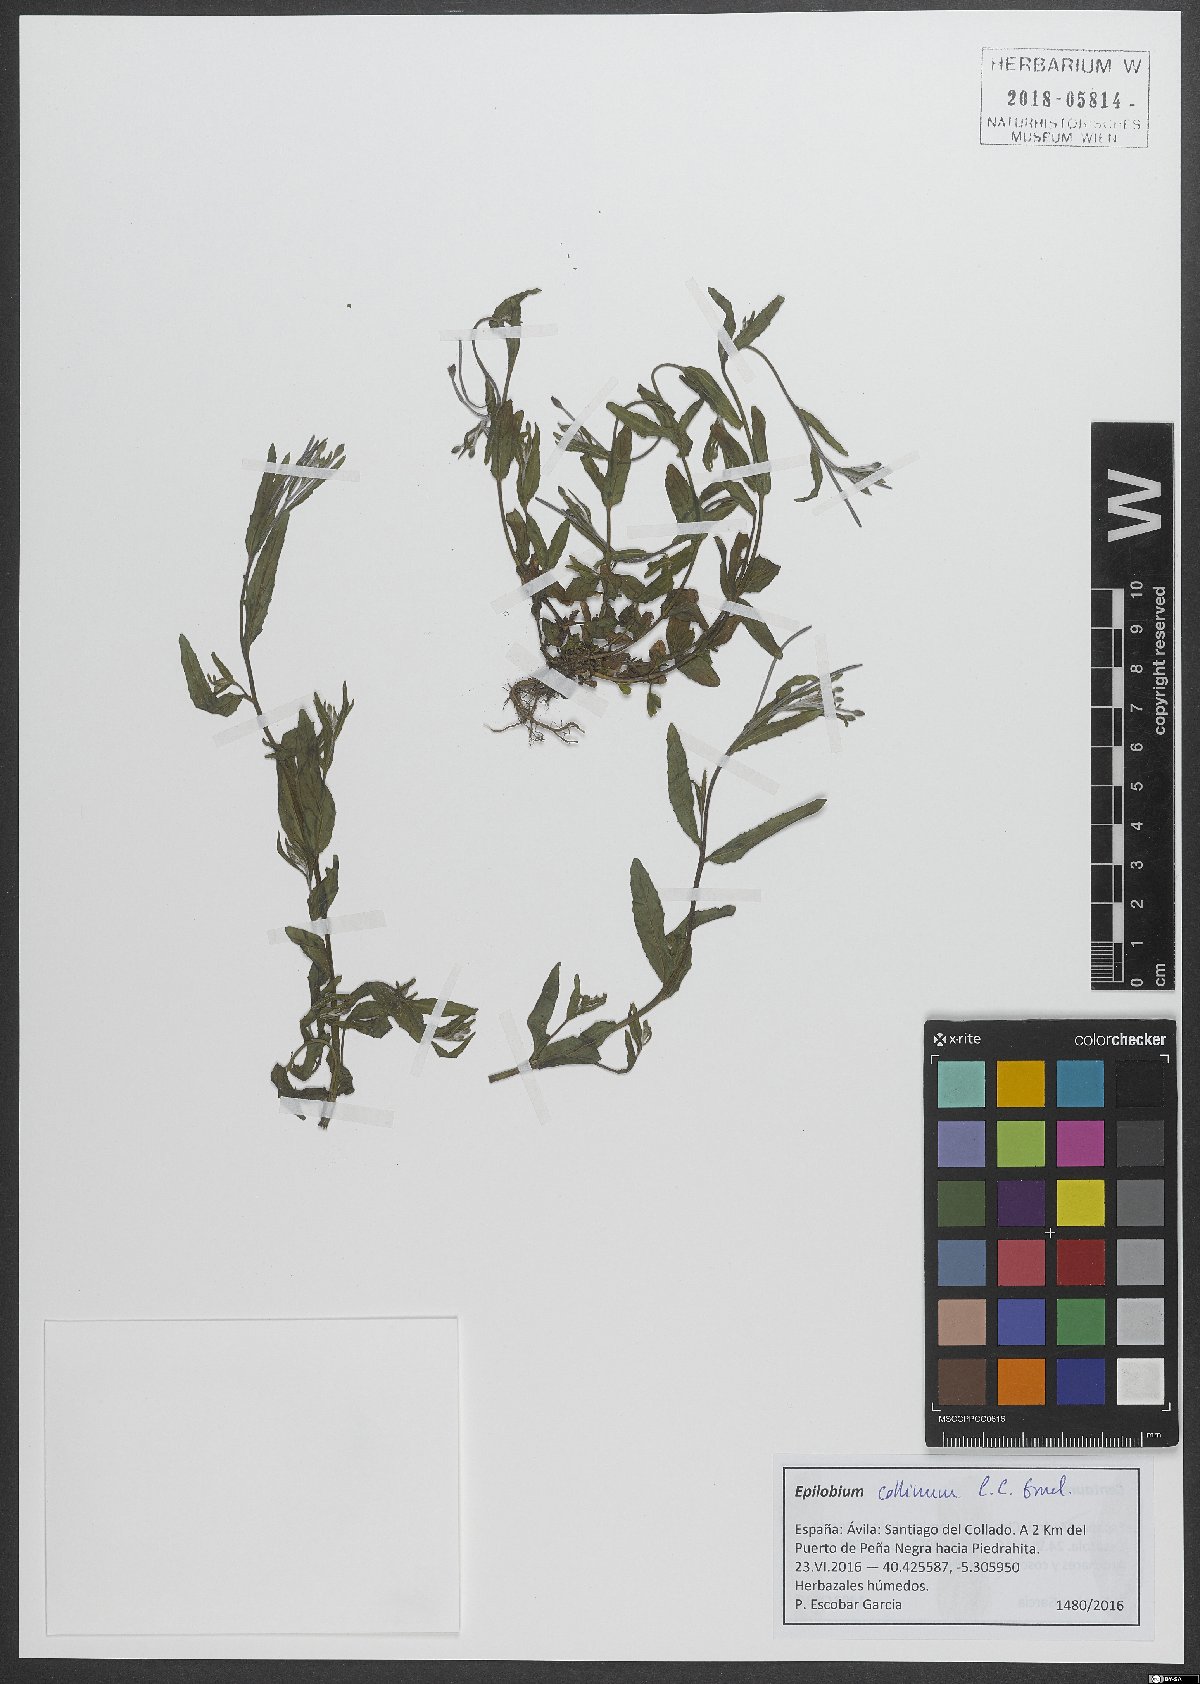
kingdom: Plantae
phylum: Tracheophyta
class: Magnoliopsida
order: Myrtales
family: Onagraceae
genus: Epilobium
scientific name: Epilobium collinum
